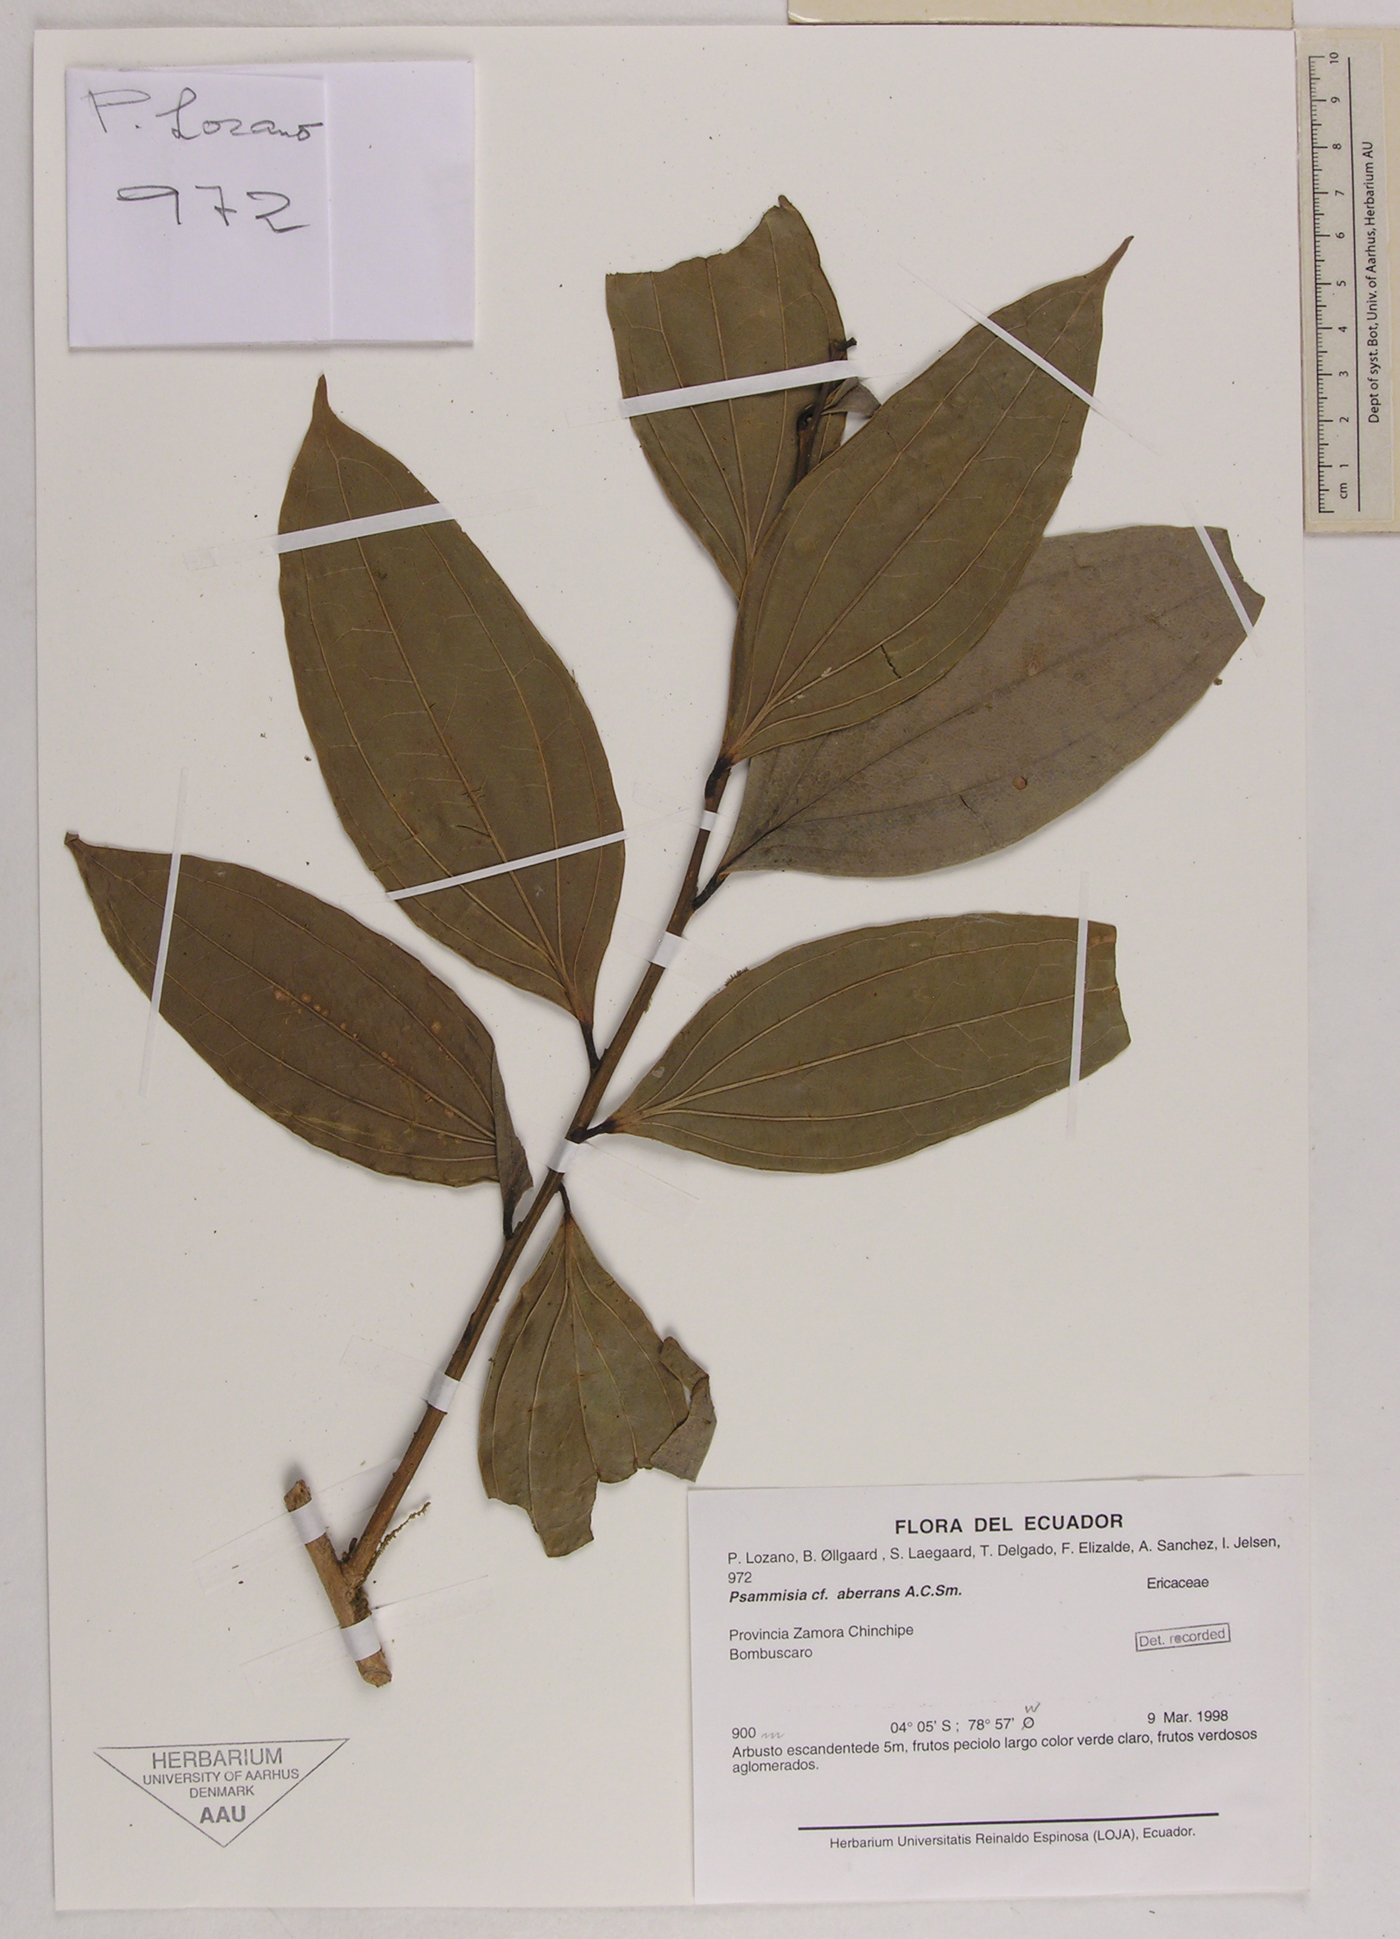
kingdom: Plantae
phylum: Tracheophyta
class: Magnoliopsida
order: Ericales
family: Ericaceae
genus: Psammisia
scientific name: Psammisia aberrans
